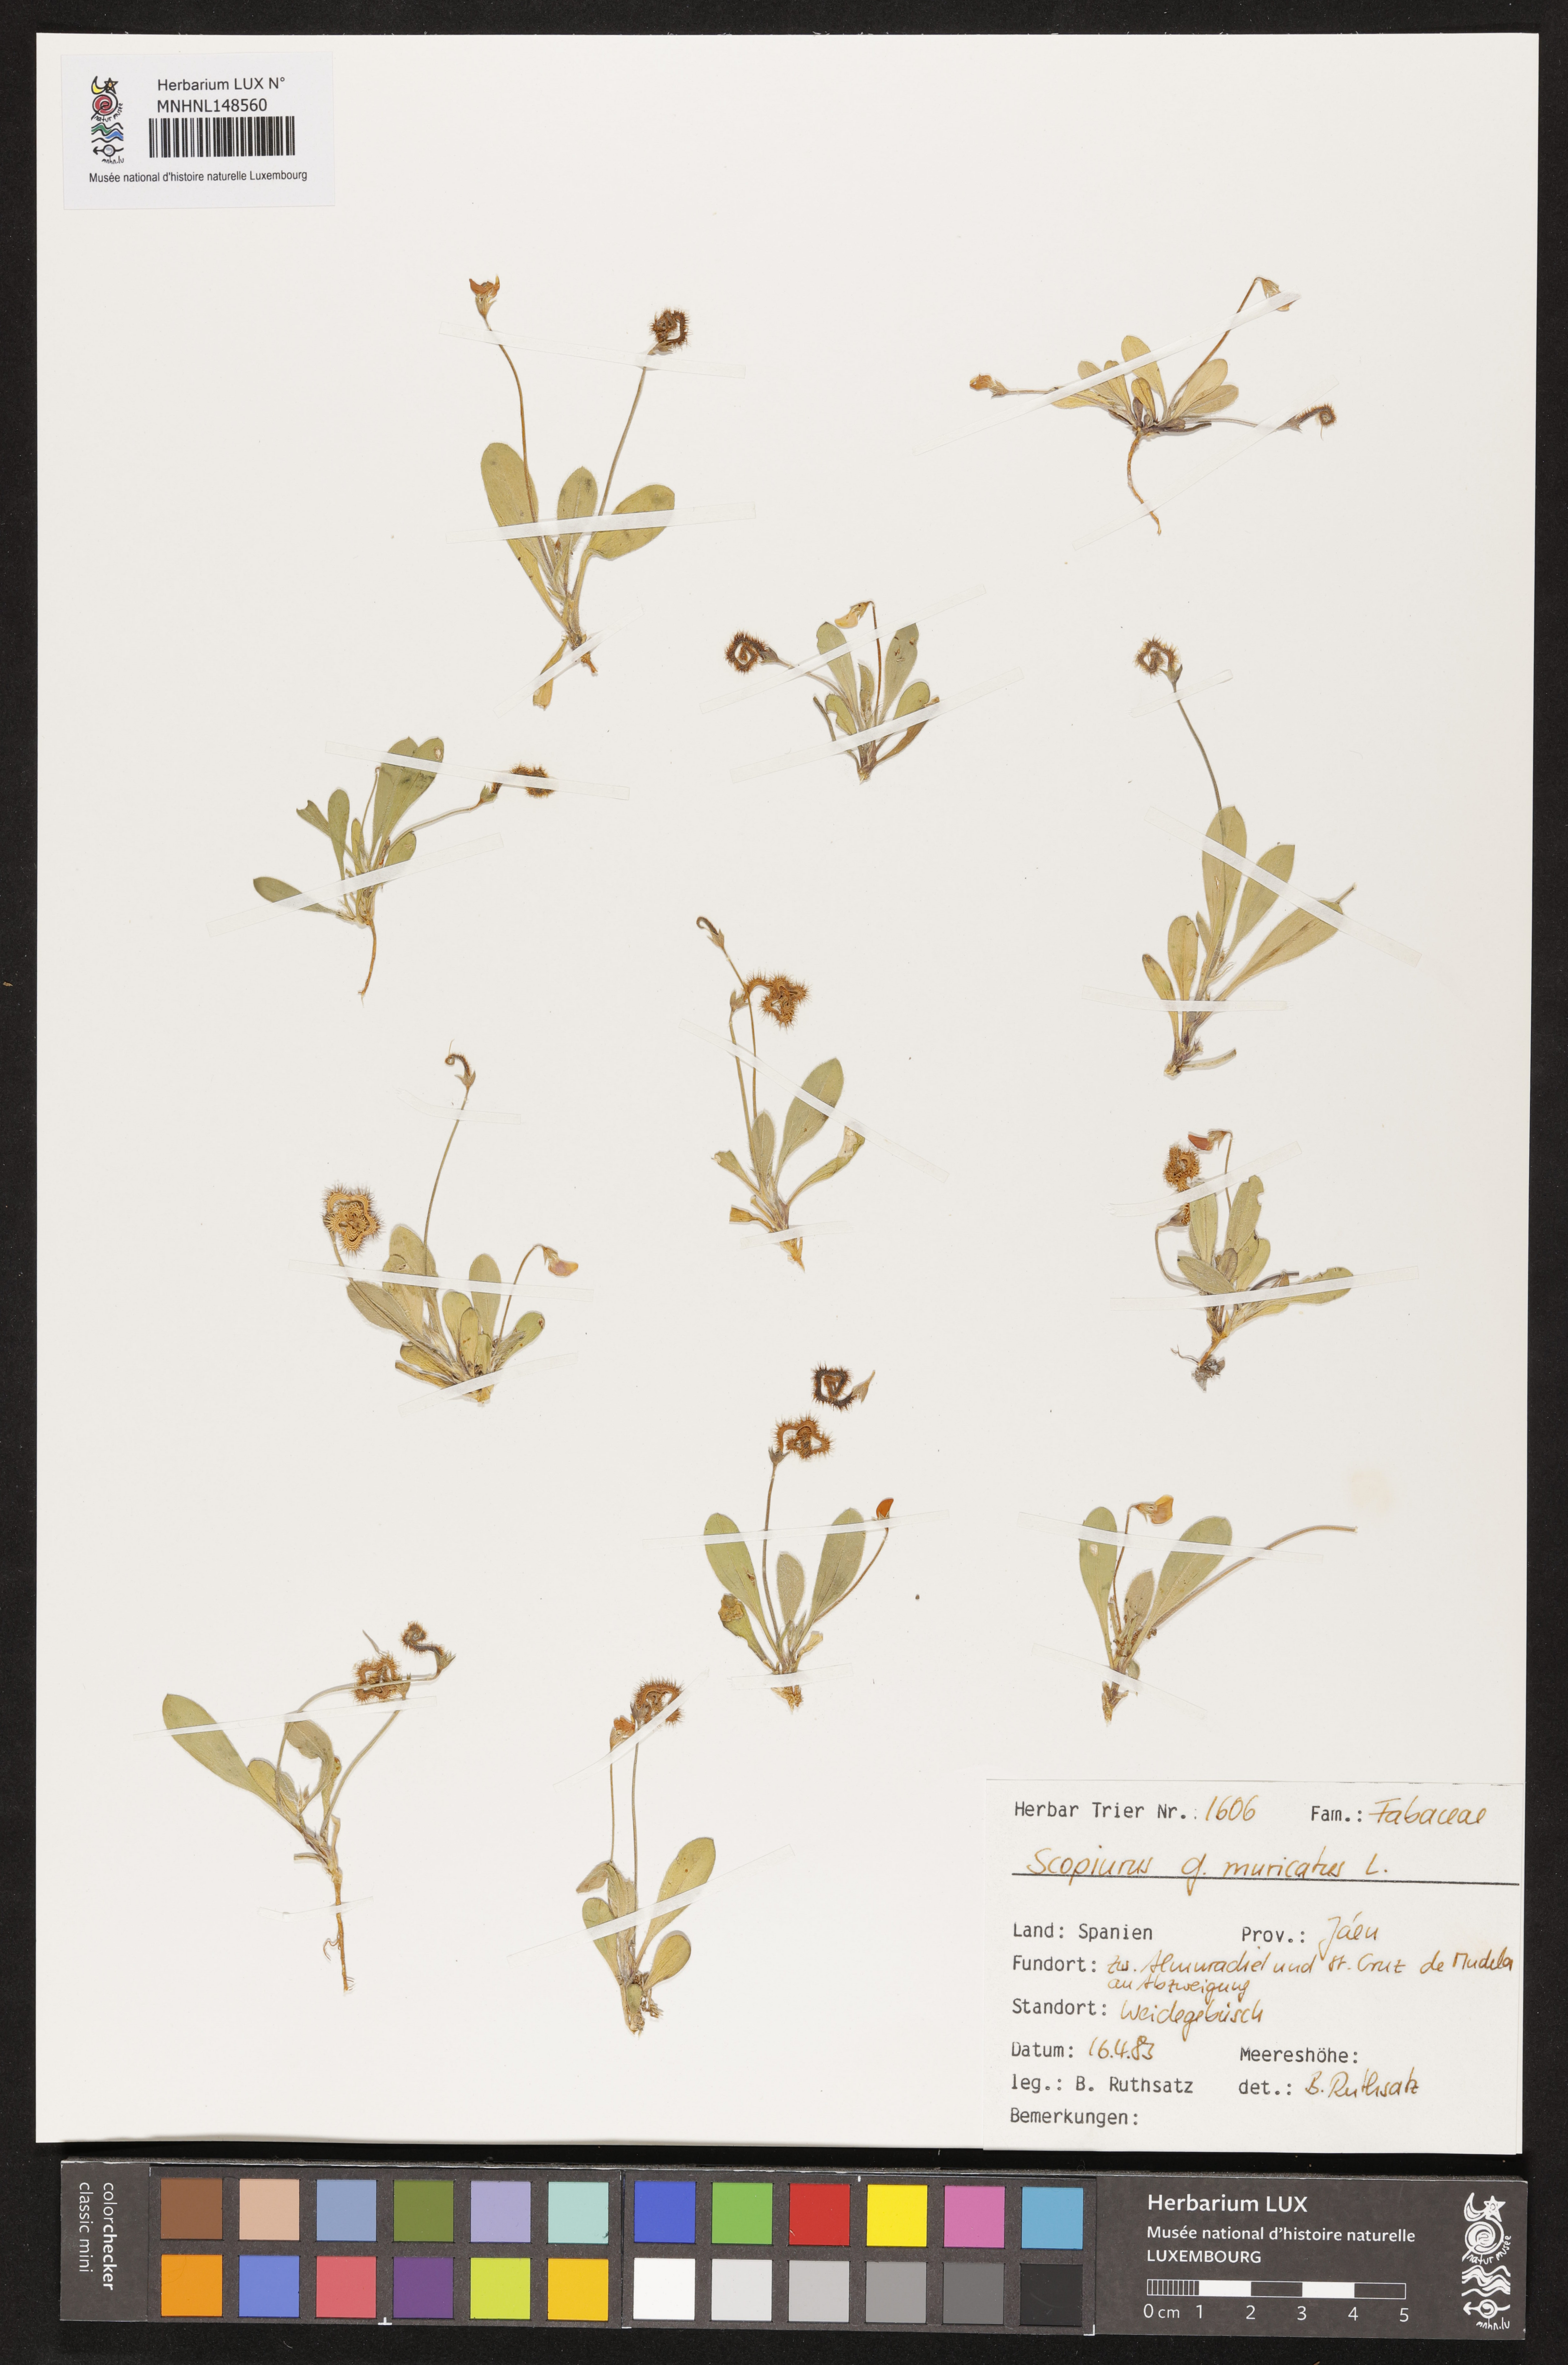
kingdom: Plantae
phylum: Tracheophyta
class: Magnoliopsida
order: Fabales
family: Fabaceae
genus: Scorpiurus
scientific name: Scorpiurus muricatus
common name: Caterpillar-plant
